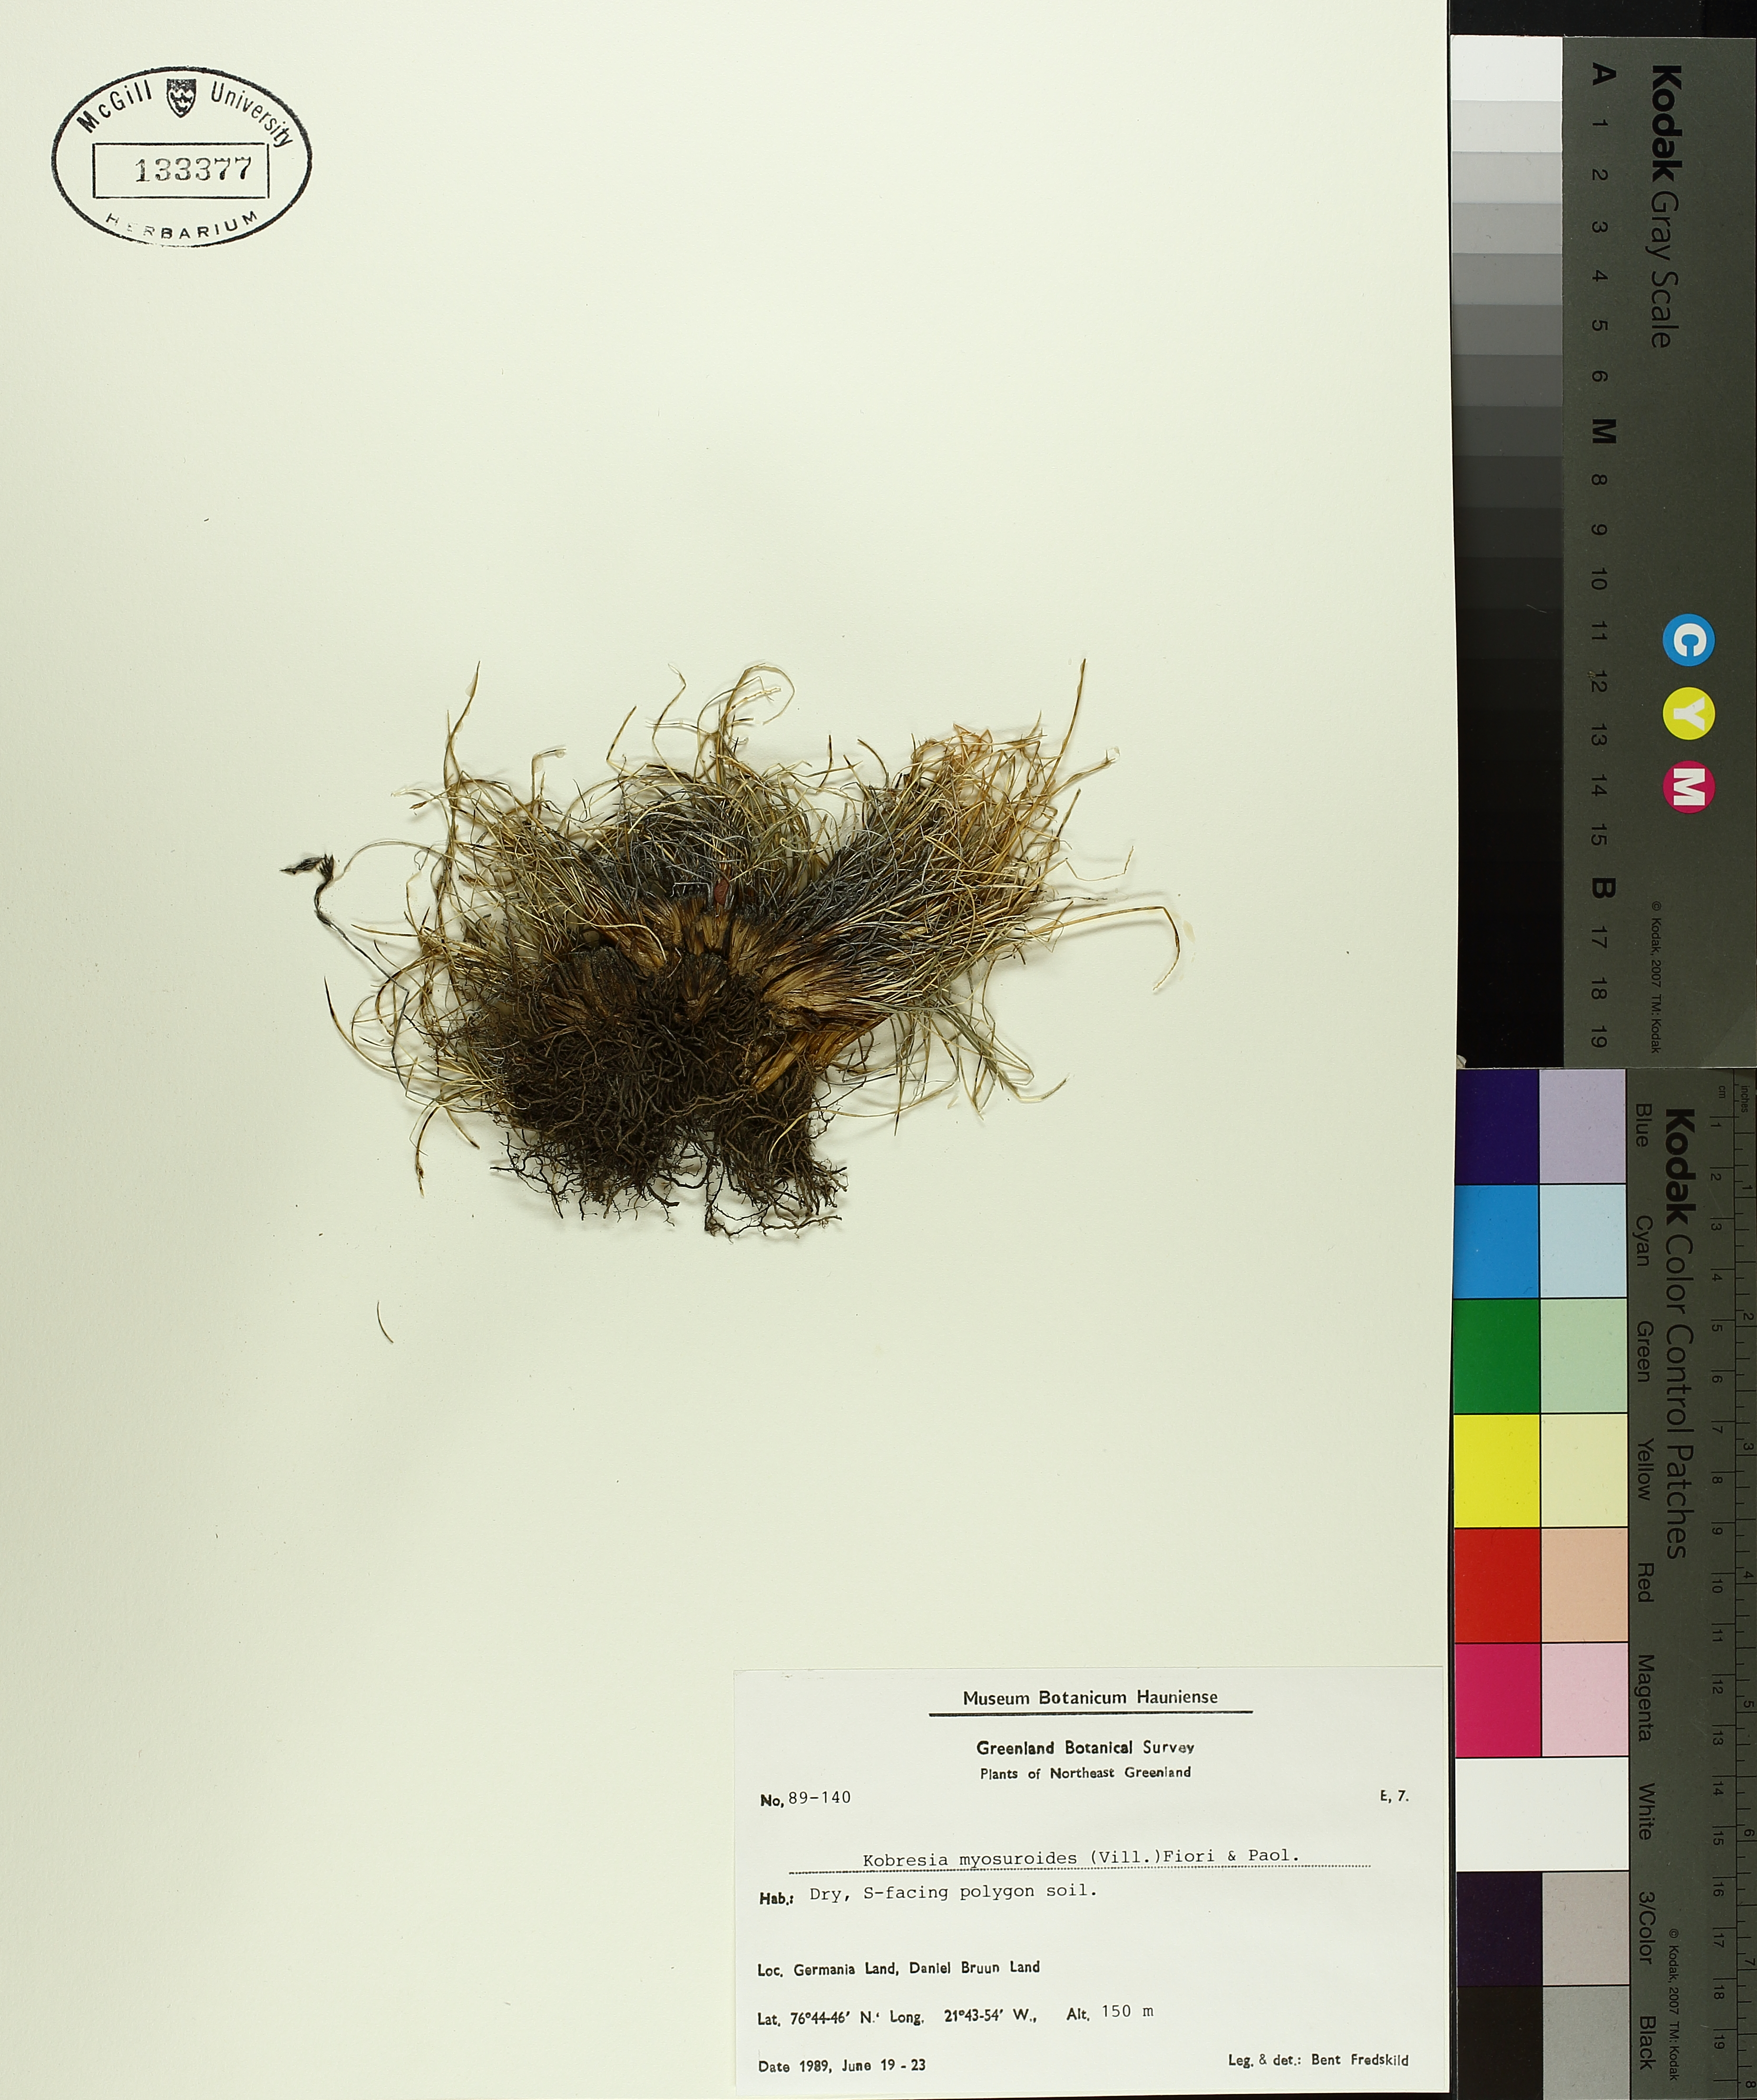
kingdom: Plantae
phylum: Tracheophyta
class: Liliopsida
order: Poales
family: Cyperaceae
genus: Carex
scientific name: Carex myosuroides
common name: Bellard's bog sedge
